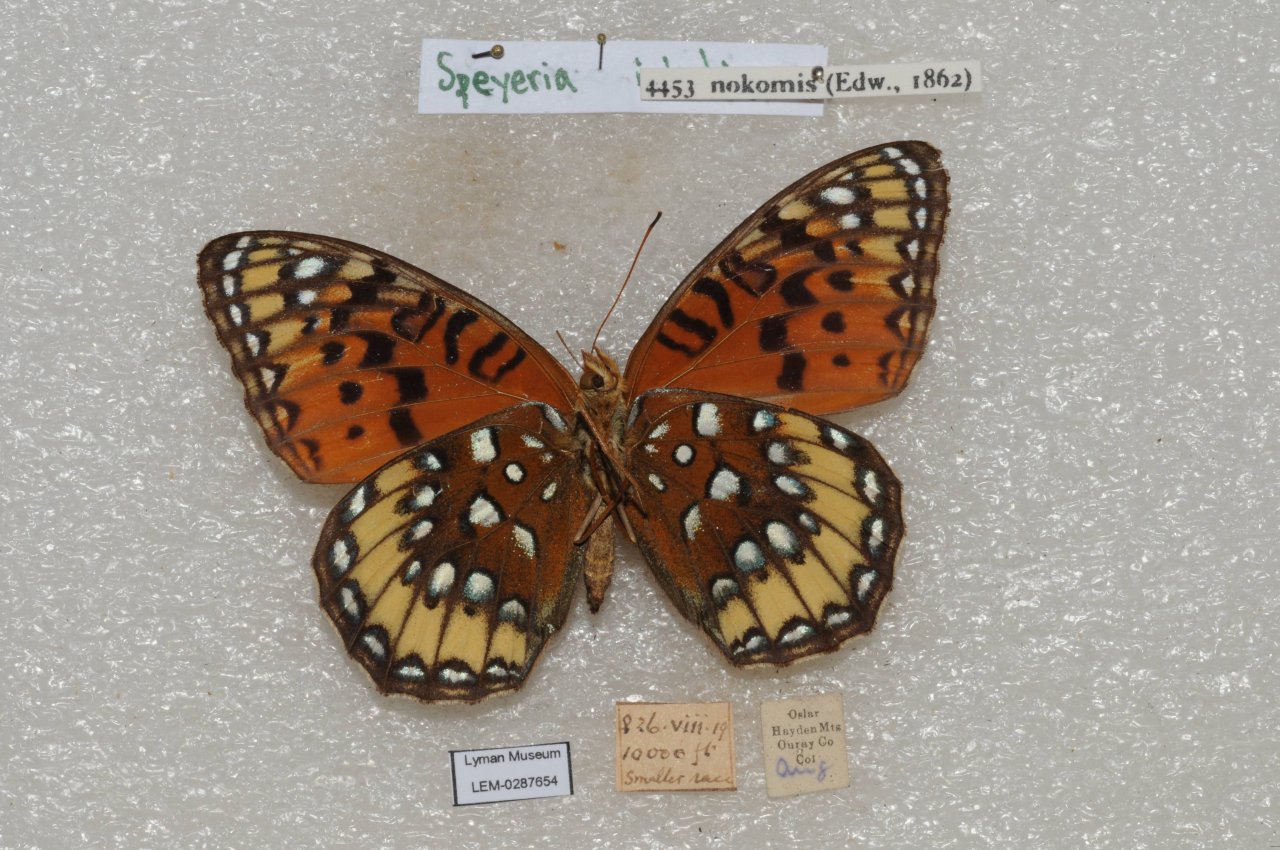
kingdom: Animalia
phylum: Arthropoda
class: Insecta
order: Lepidoptera
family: Nymphalidae
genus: Speyeria
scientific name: Speyeria nokomis
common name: Nokomis Fritillary
